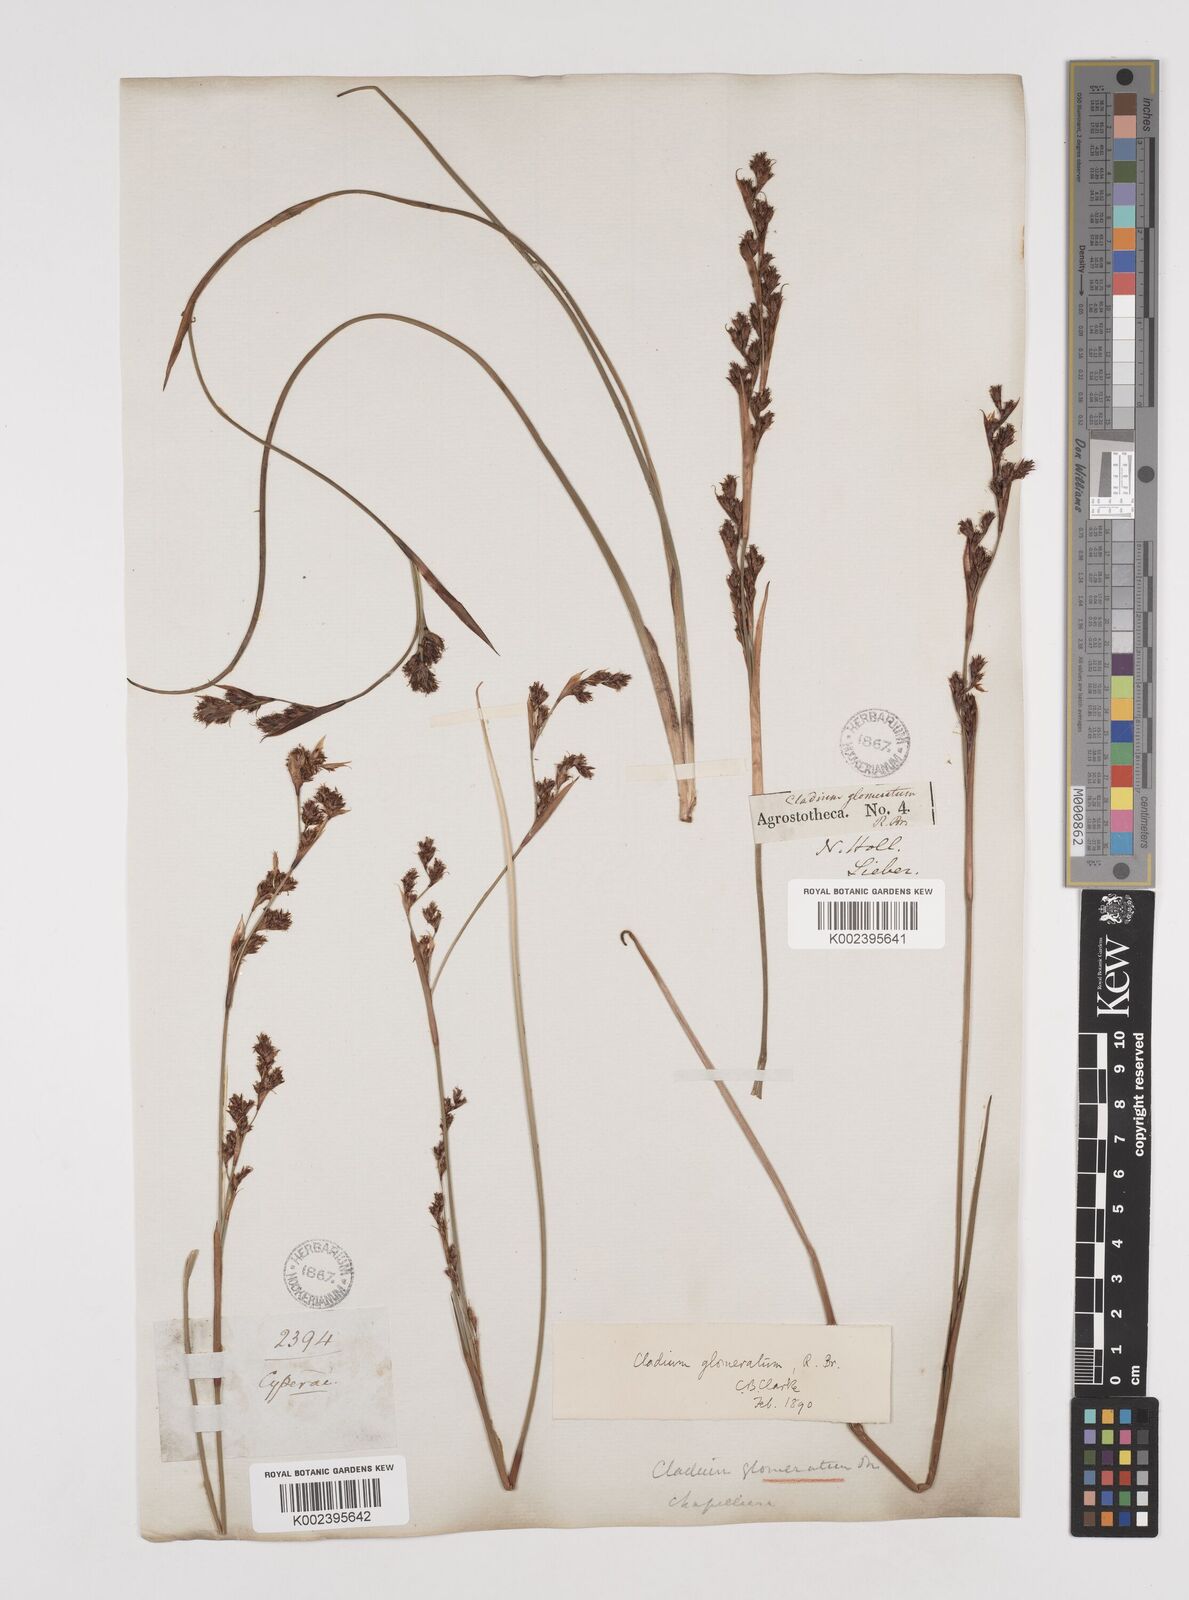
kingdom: Plantae
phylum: Tracheophyta
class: Liliopsida
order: Poales
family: Cyperaceae
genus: Machaerina
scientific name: Machaerina rubiginosa
